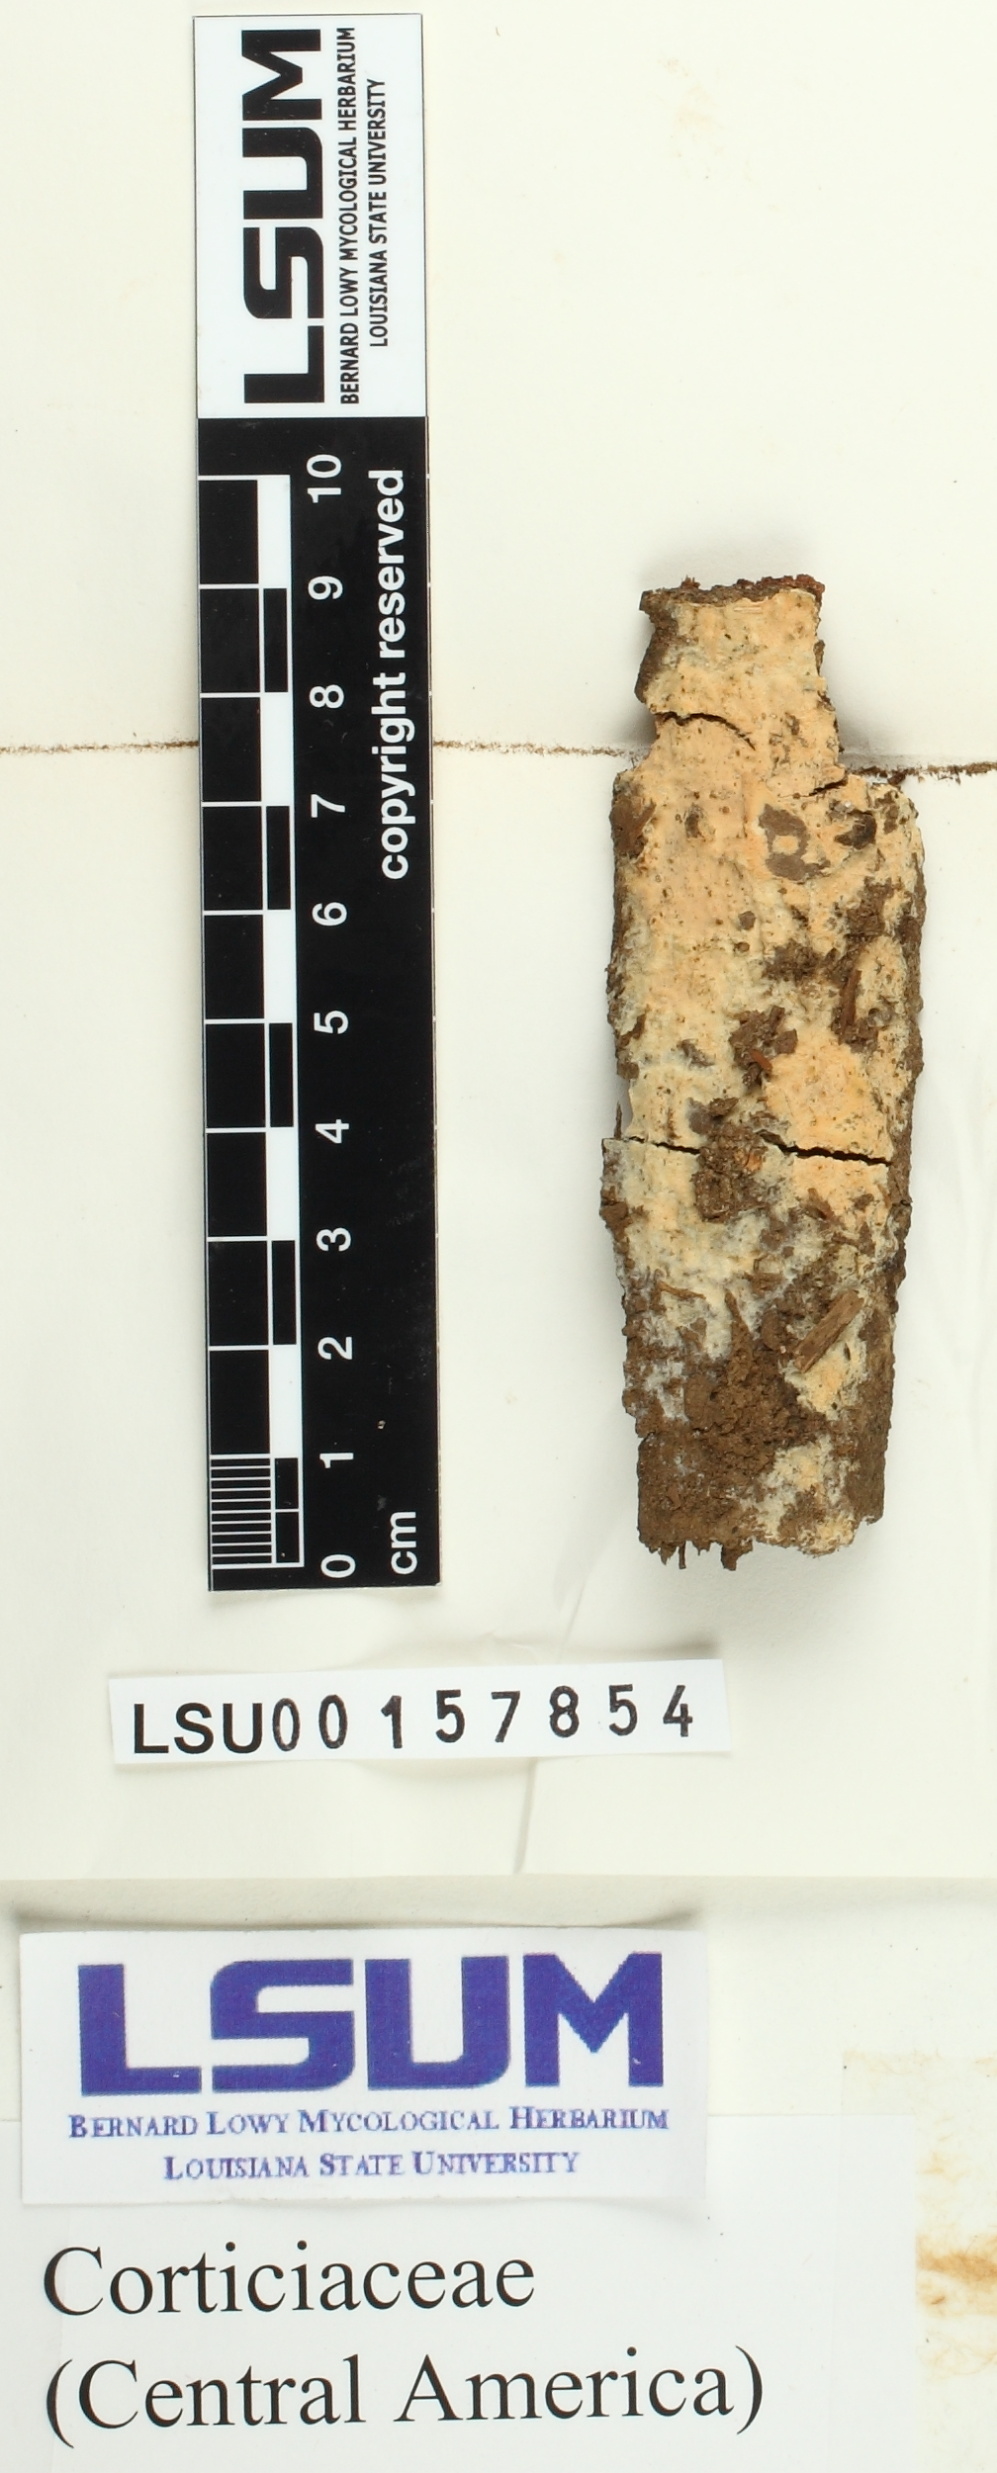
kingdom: Fungi
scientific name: Fungi
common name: Fungi
